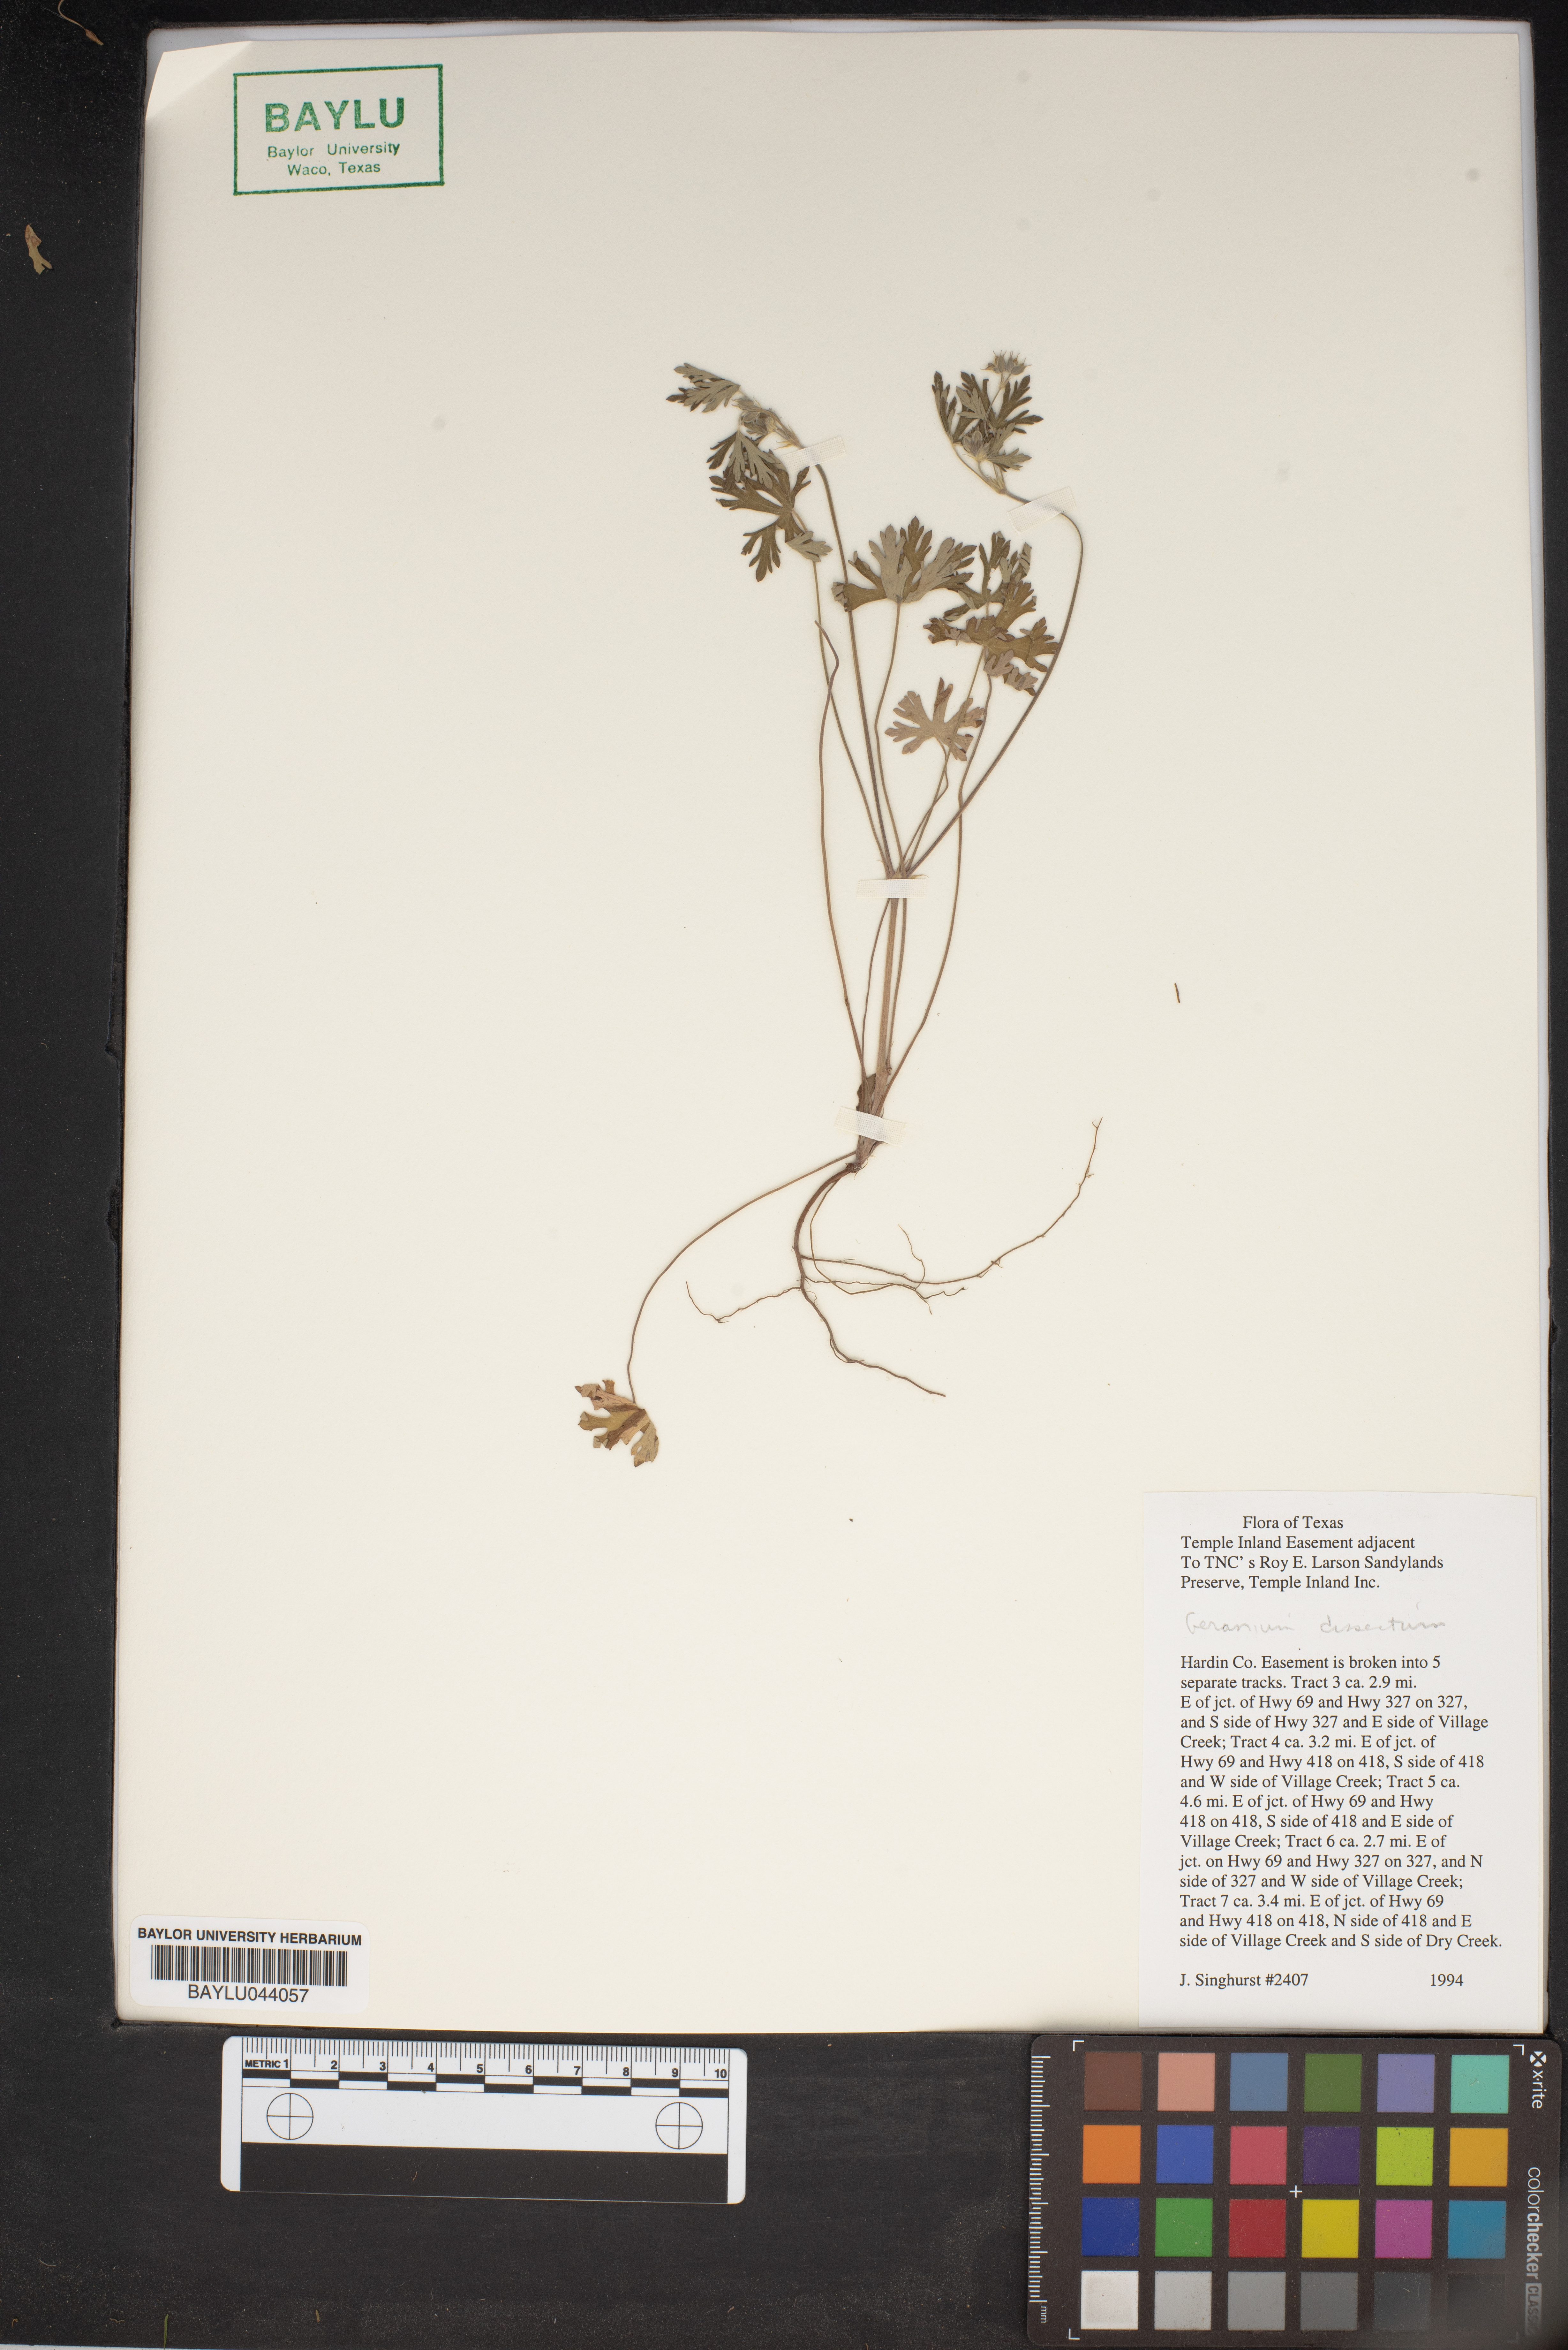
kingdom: Plantae
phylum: Tracheophyta
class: Magnoliopsida
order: Geraniales
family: Geraniaceae
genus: Geranium
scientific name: Geranium dissectum
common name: Cut-leaved crane's-bill
